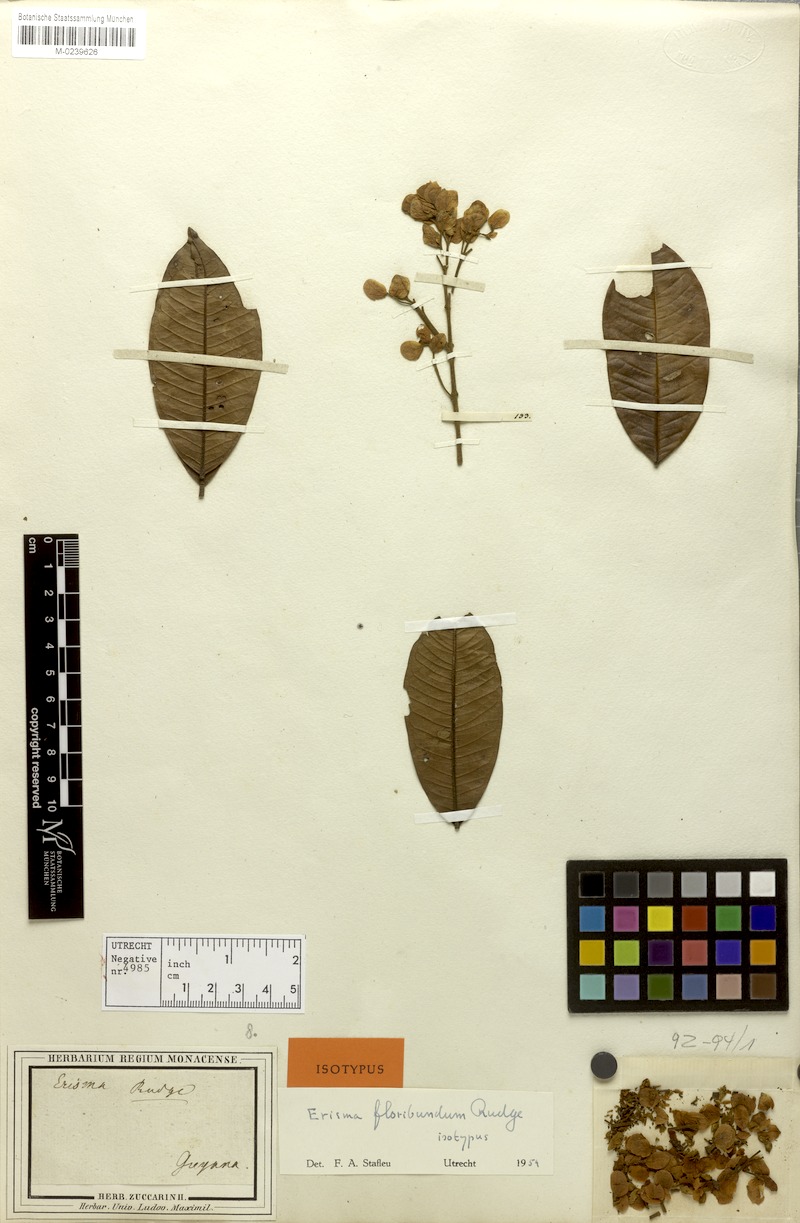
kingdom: Plantae
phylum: Tracheophyta
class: Magnoliopsida
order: Myrtales
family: Vochysiaceae
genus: Erisma
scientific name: Erisma floribundum
